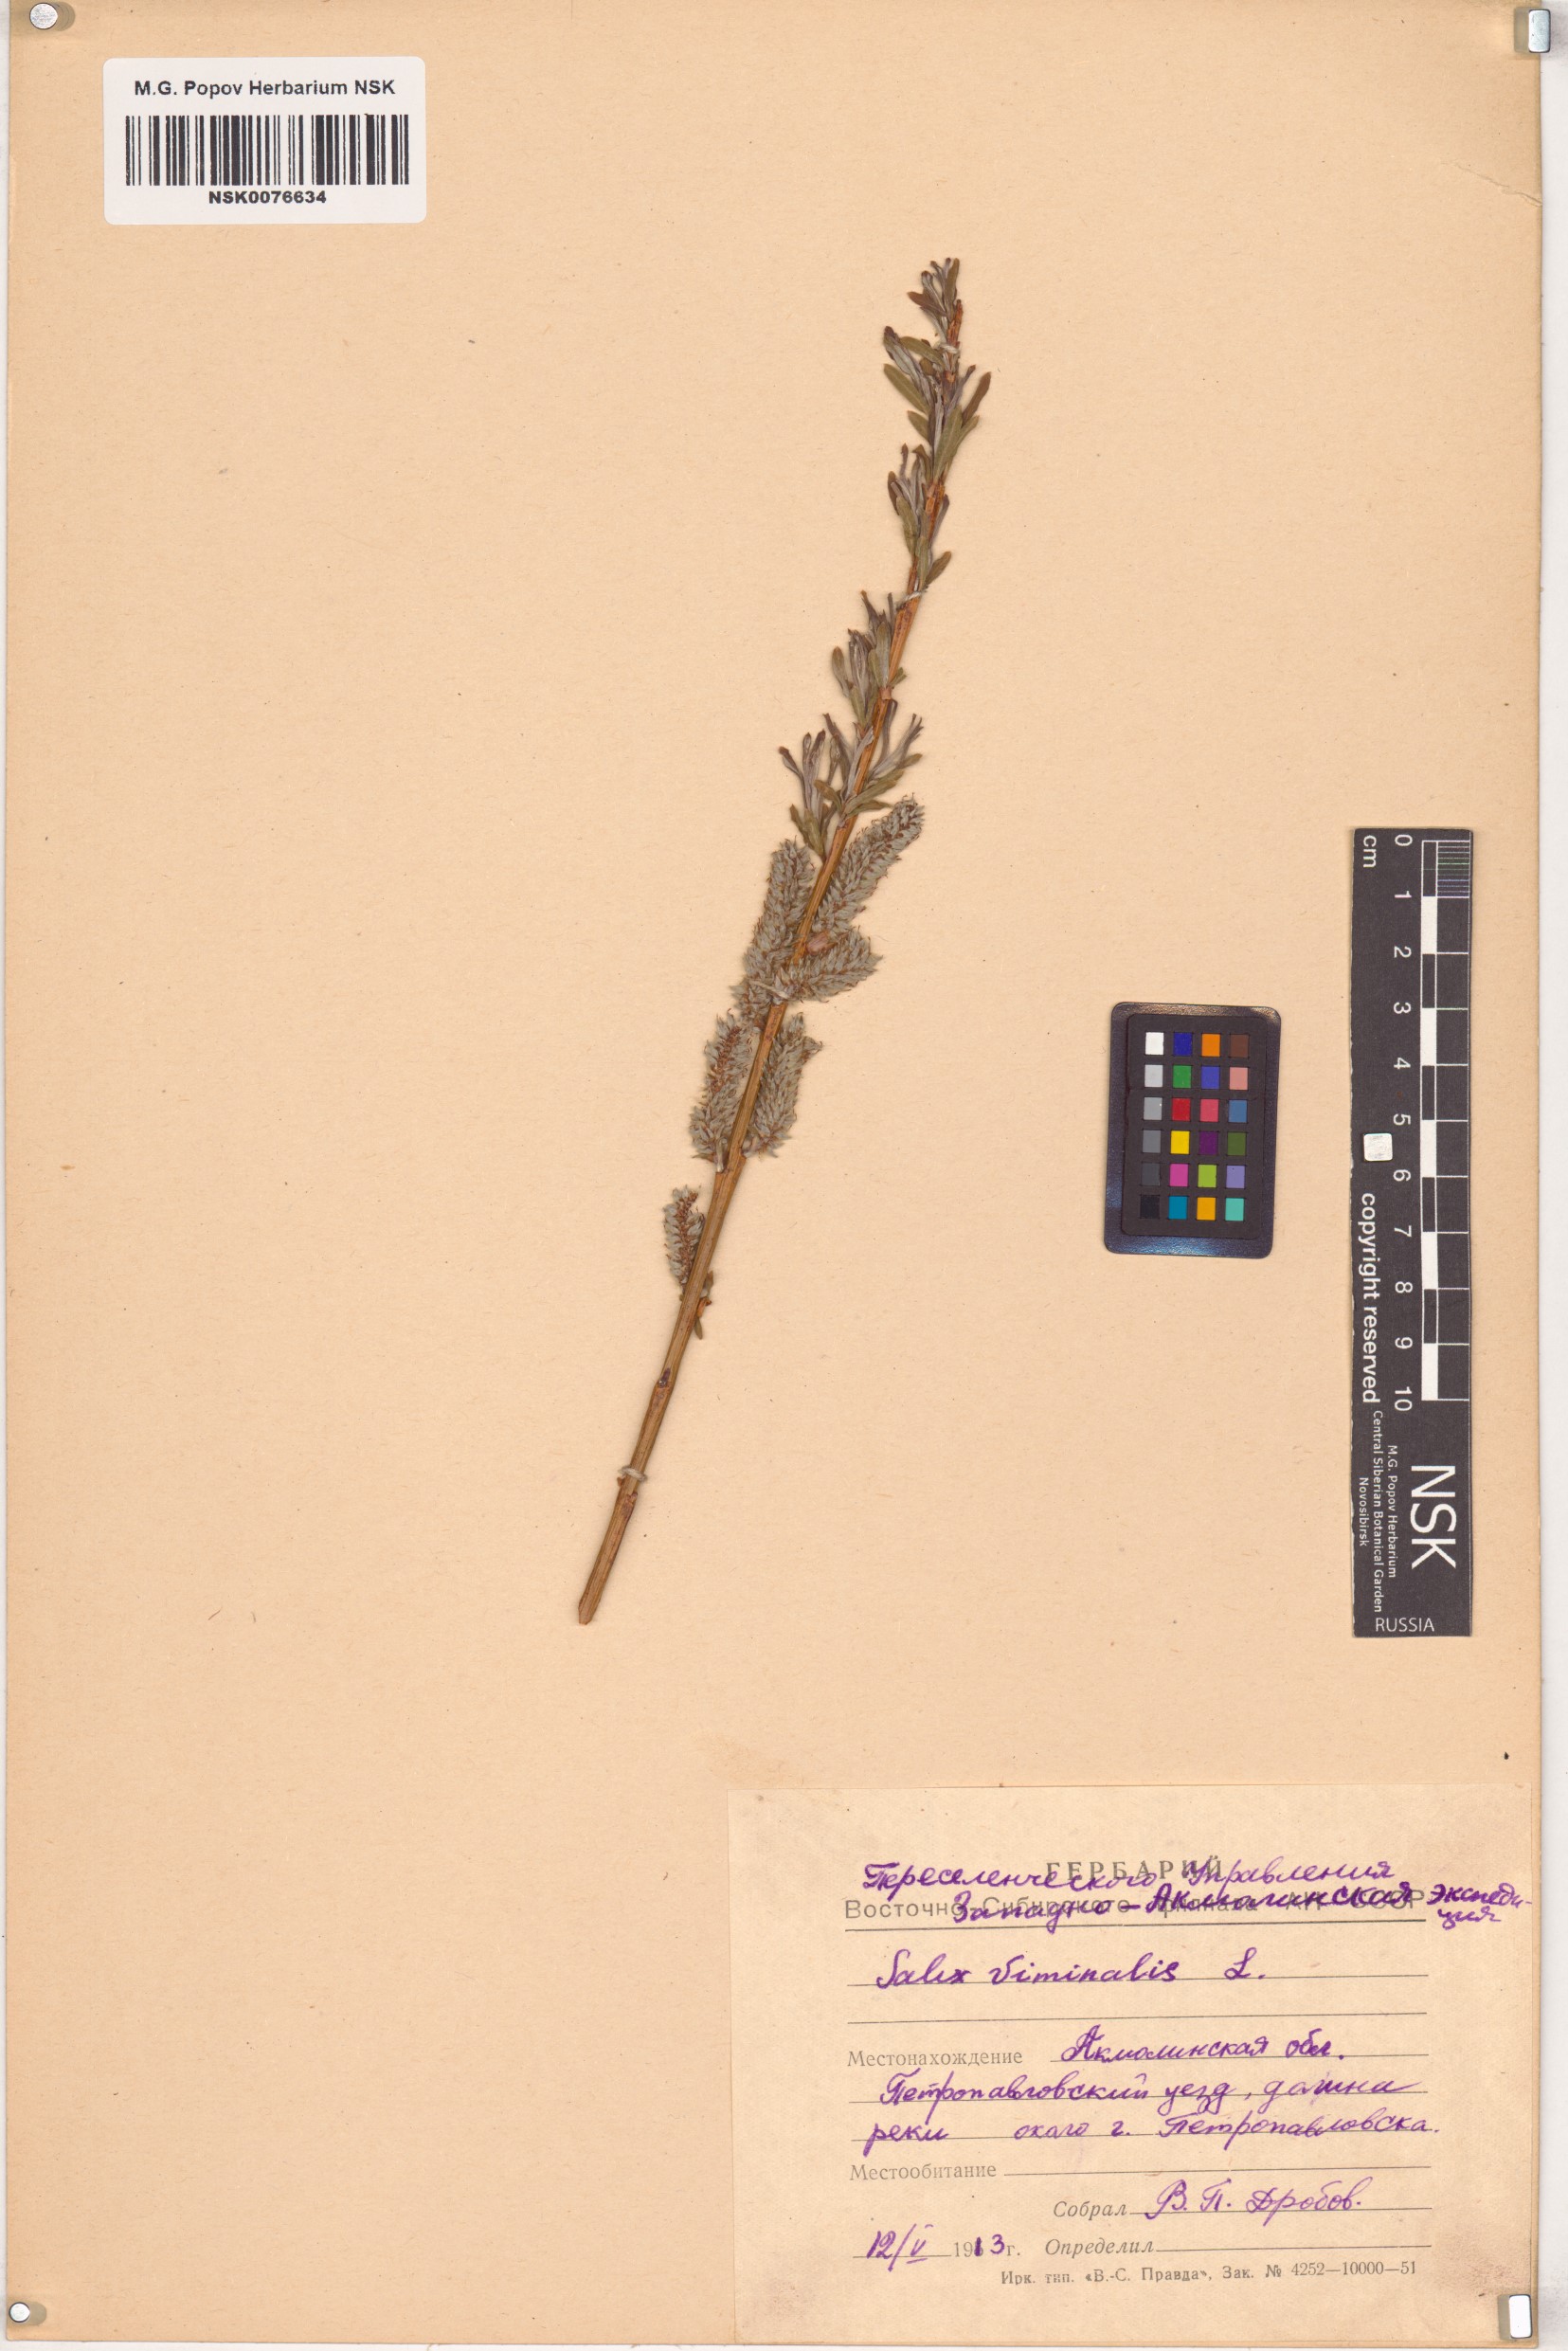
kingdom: Plantae
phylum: Tracheophyta
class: Magnoliopsida
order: Malpighiales
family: Salicaceae
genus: Salix
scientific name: Salix viminalis
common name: Osier
